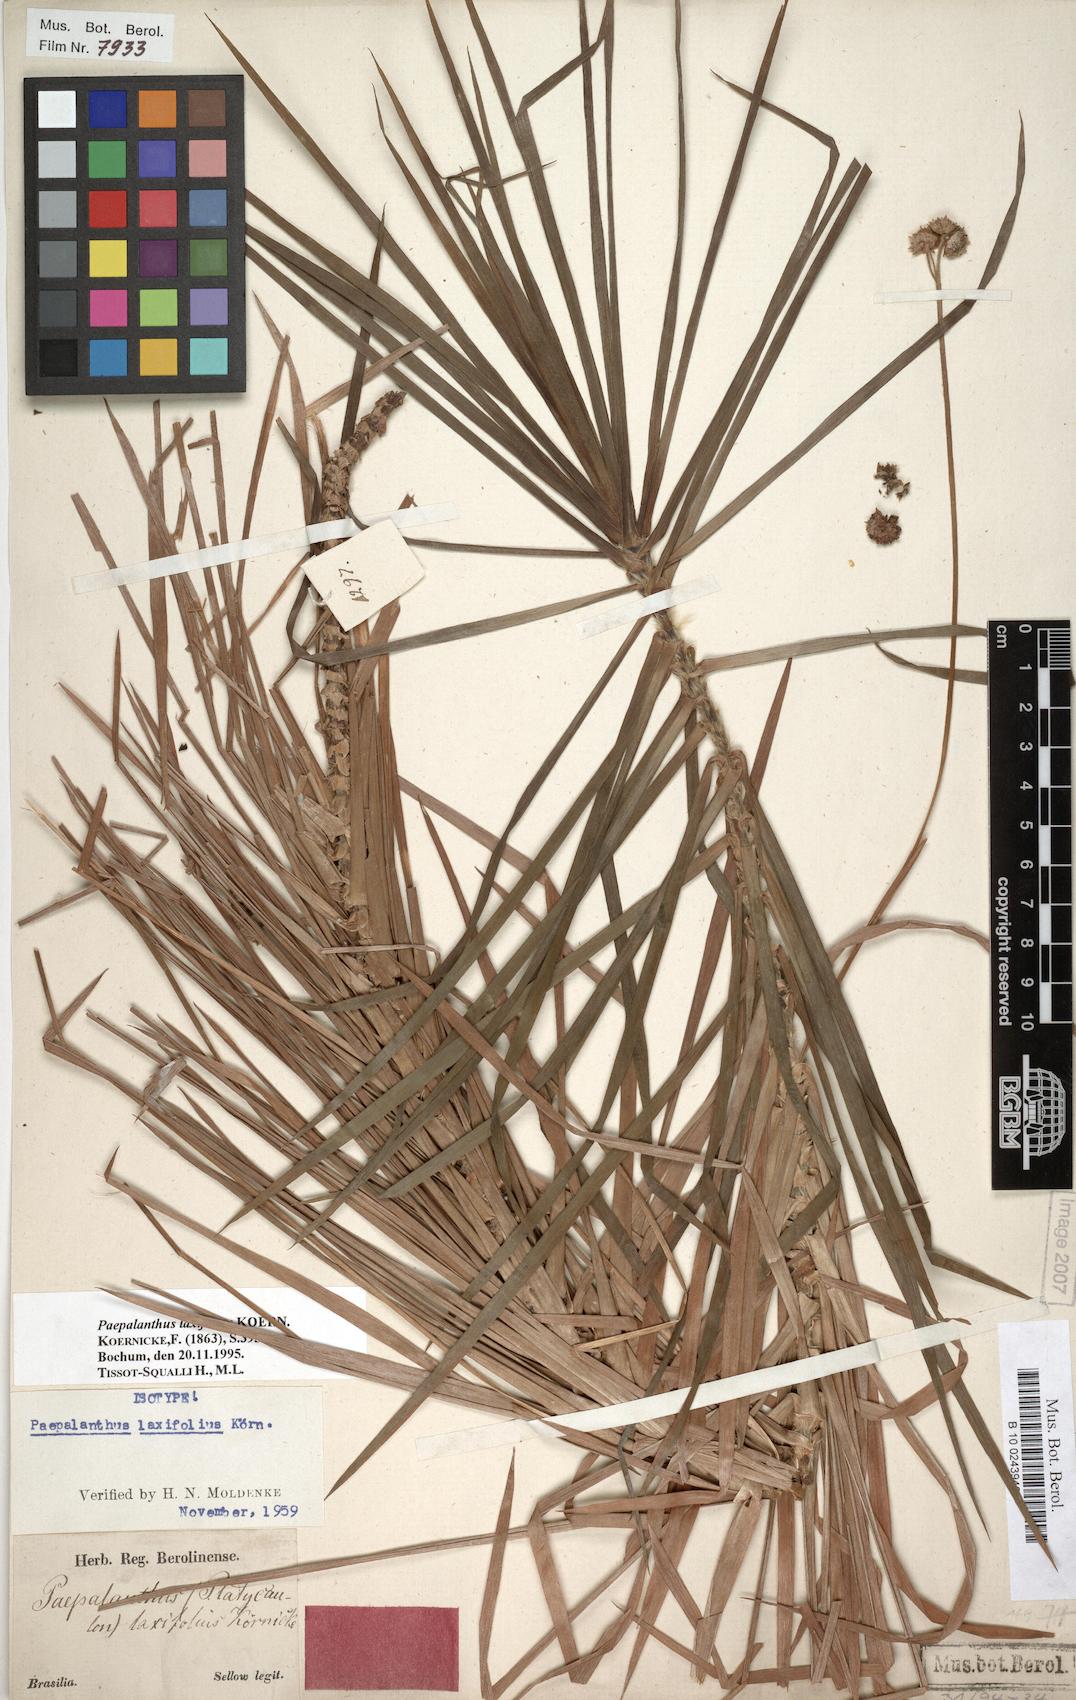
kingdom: Plantae
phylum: Tracheophyta
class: Liliopsida
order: Poales
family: Eriocaulaceae
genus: Paepalanthus
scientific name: Paepalanthus laxifolius
